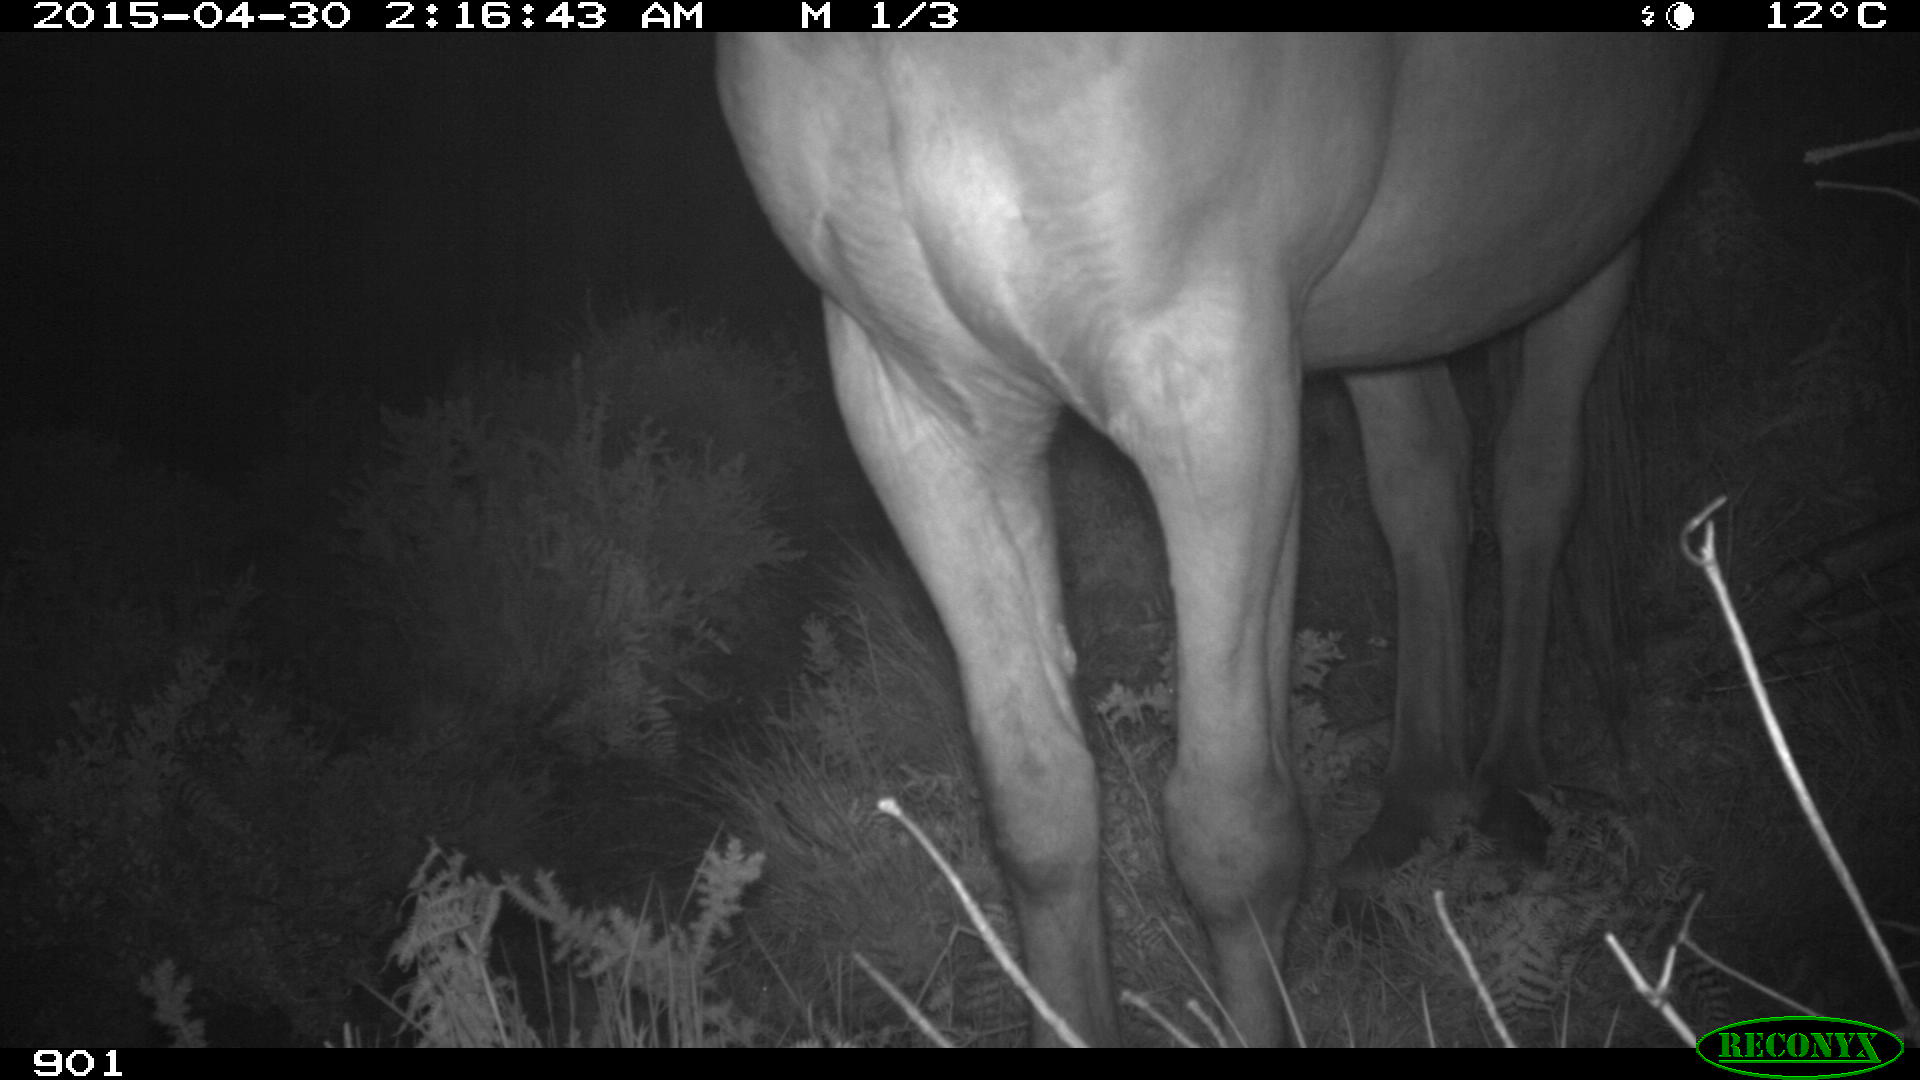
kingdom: Animalia
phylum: Chordata
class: Mammalia
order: Perissodactyla
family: Equidae
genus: Equus
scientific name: Equus caballus
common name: Horse
